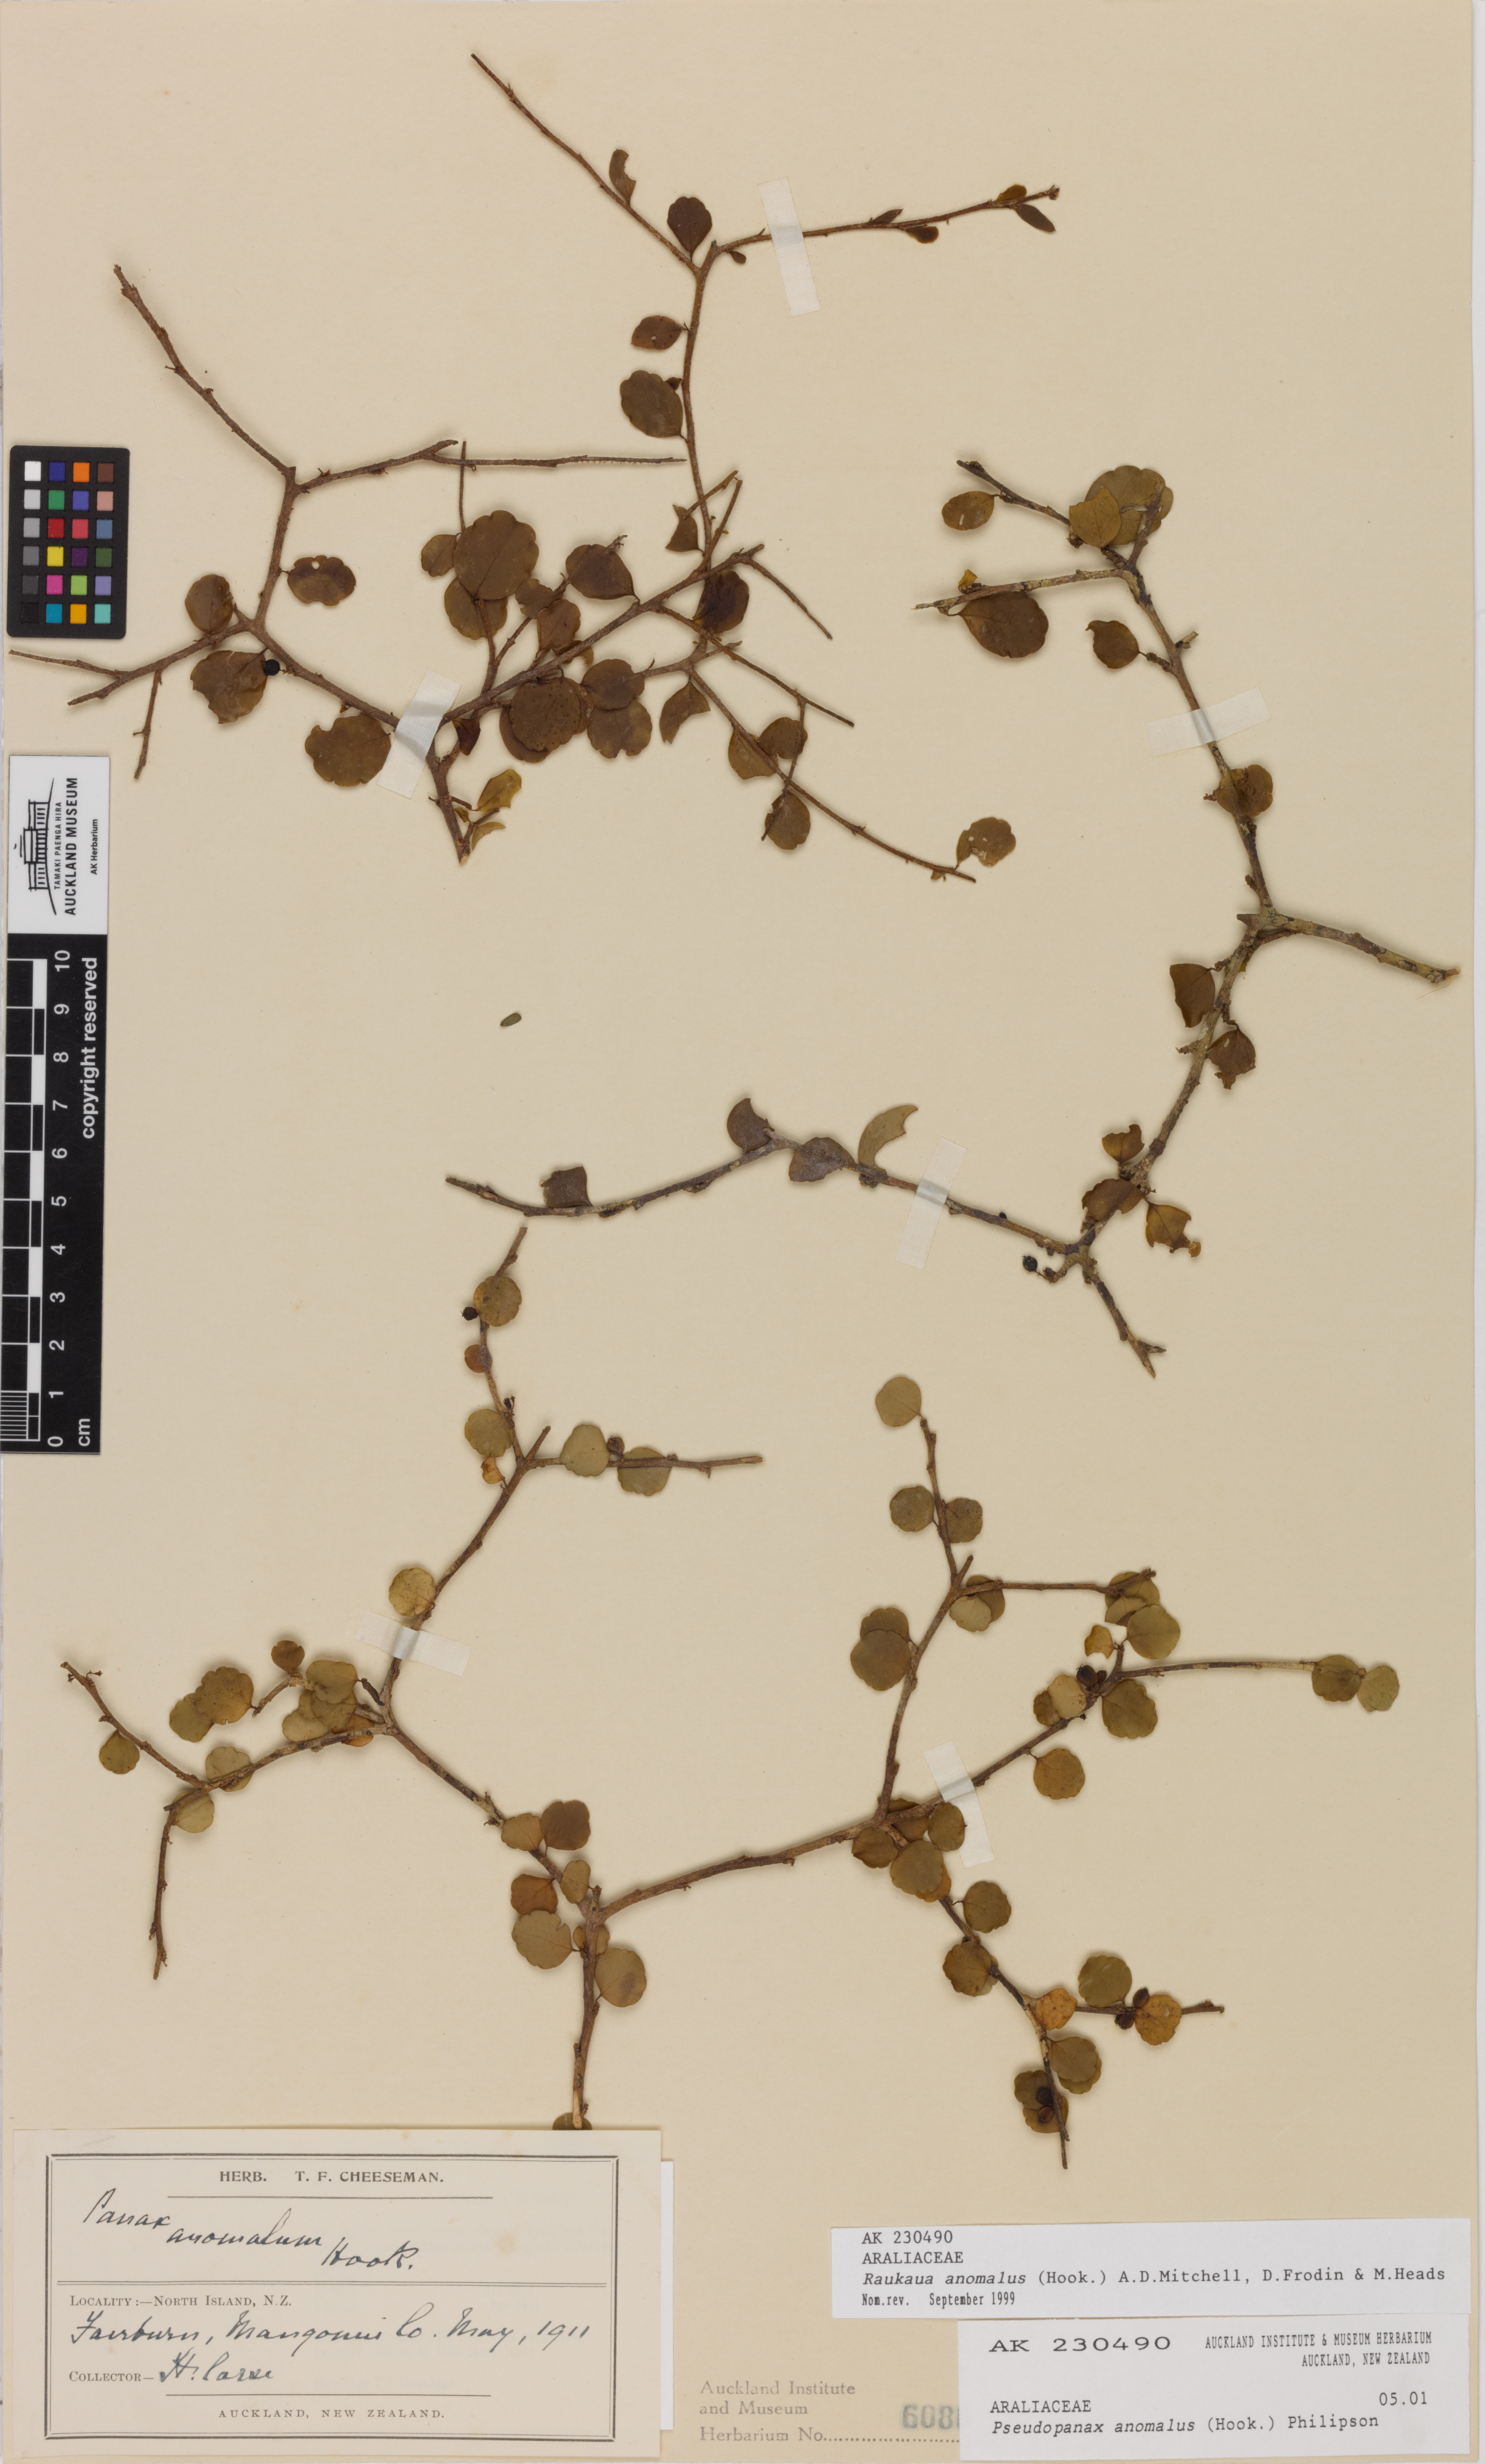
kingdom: Plantae
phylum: Tracheophyta
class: Magnoliopsida
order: Apiales
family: Araliaceae
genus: Raukaua
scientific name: Raukaua anomalus
